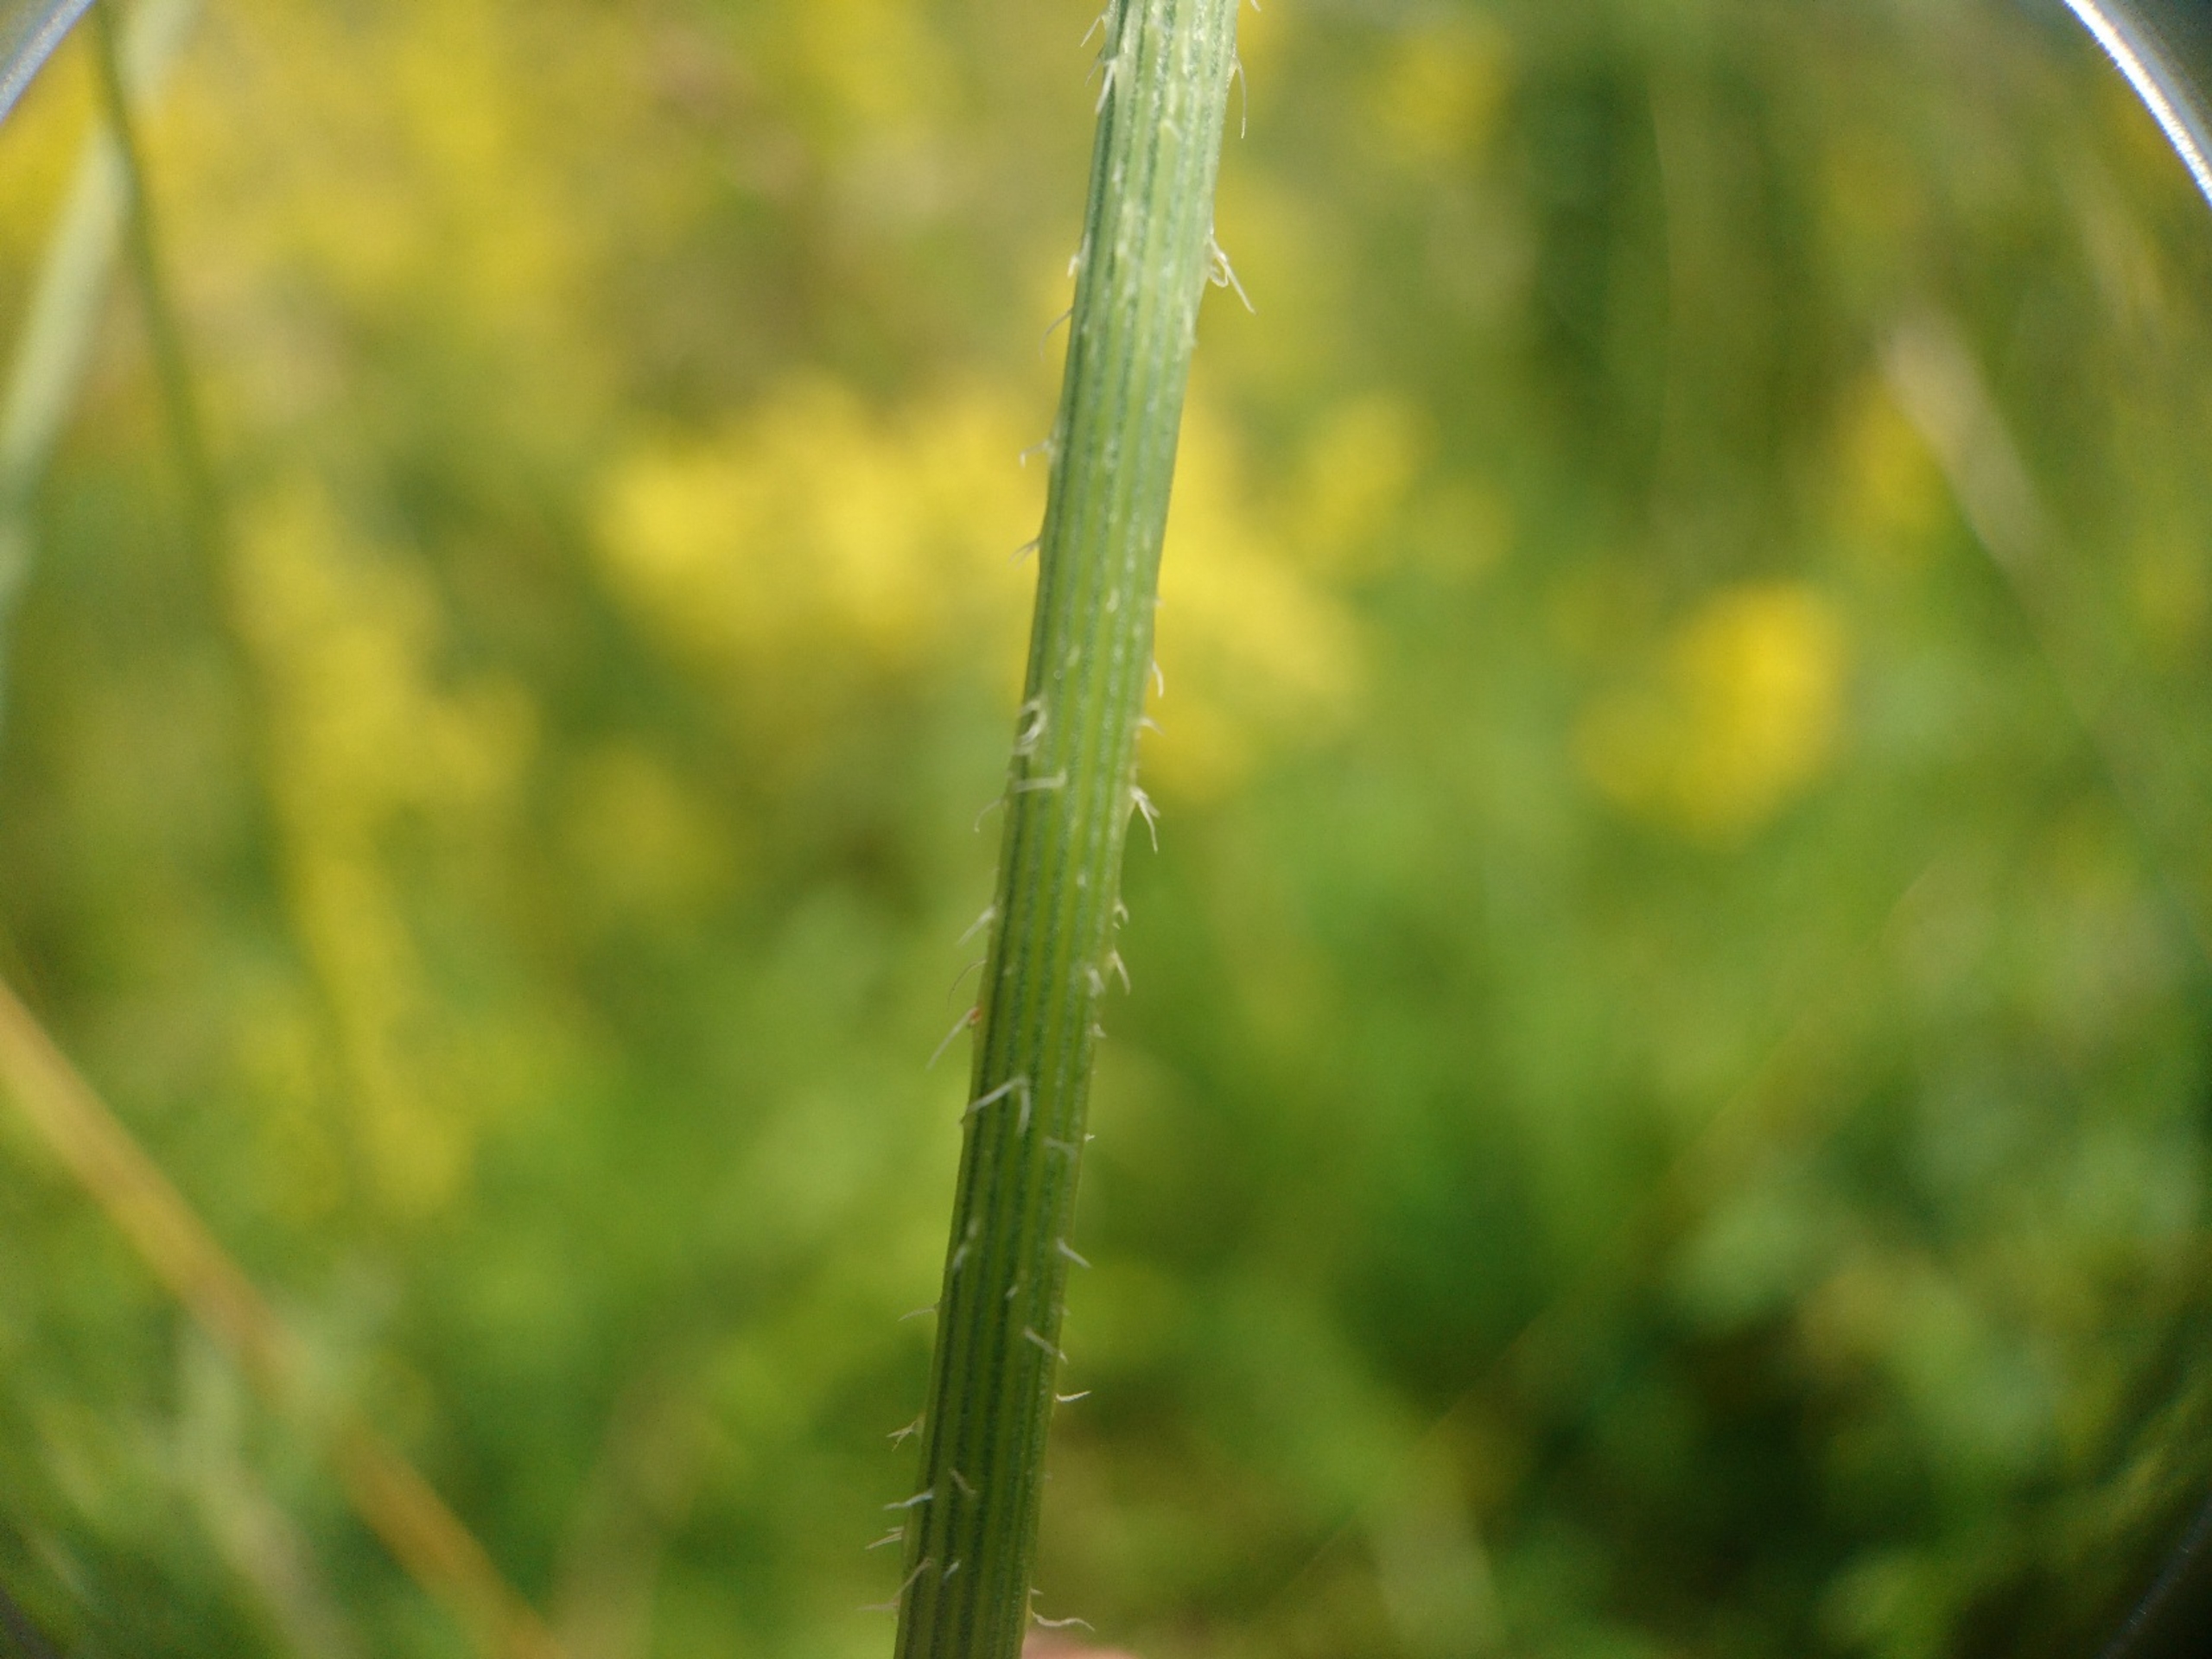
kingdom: Plantae
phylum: Tracheophyta
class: Magnoliopsida
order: Apiales
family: Apiaceae
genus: Daucus
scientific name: Daucus carota
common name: Vild gulerod
